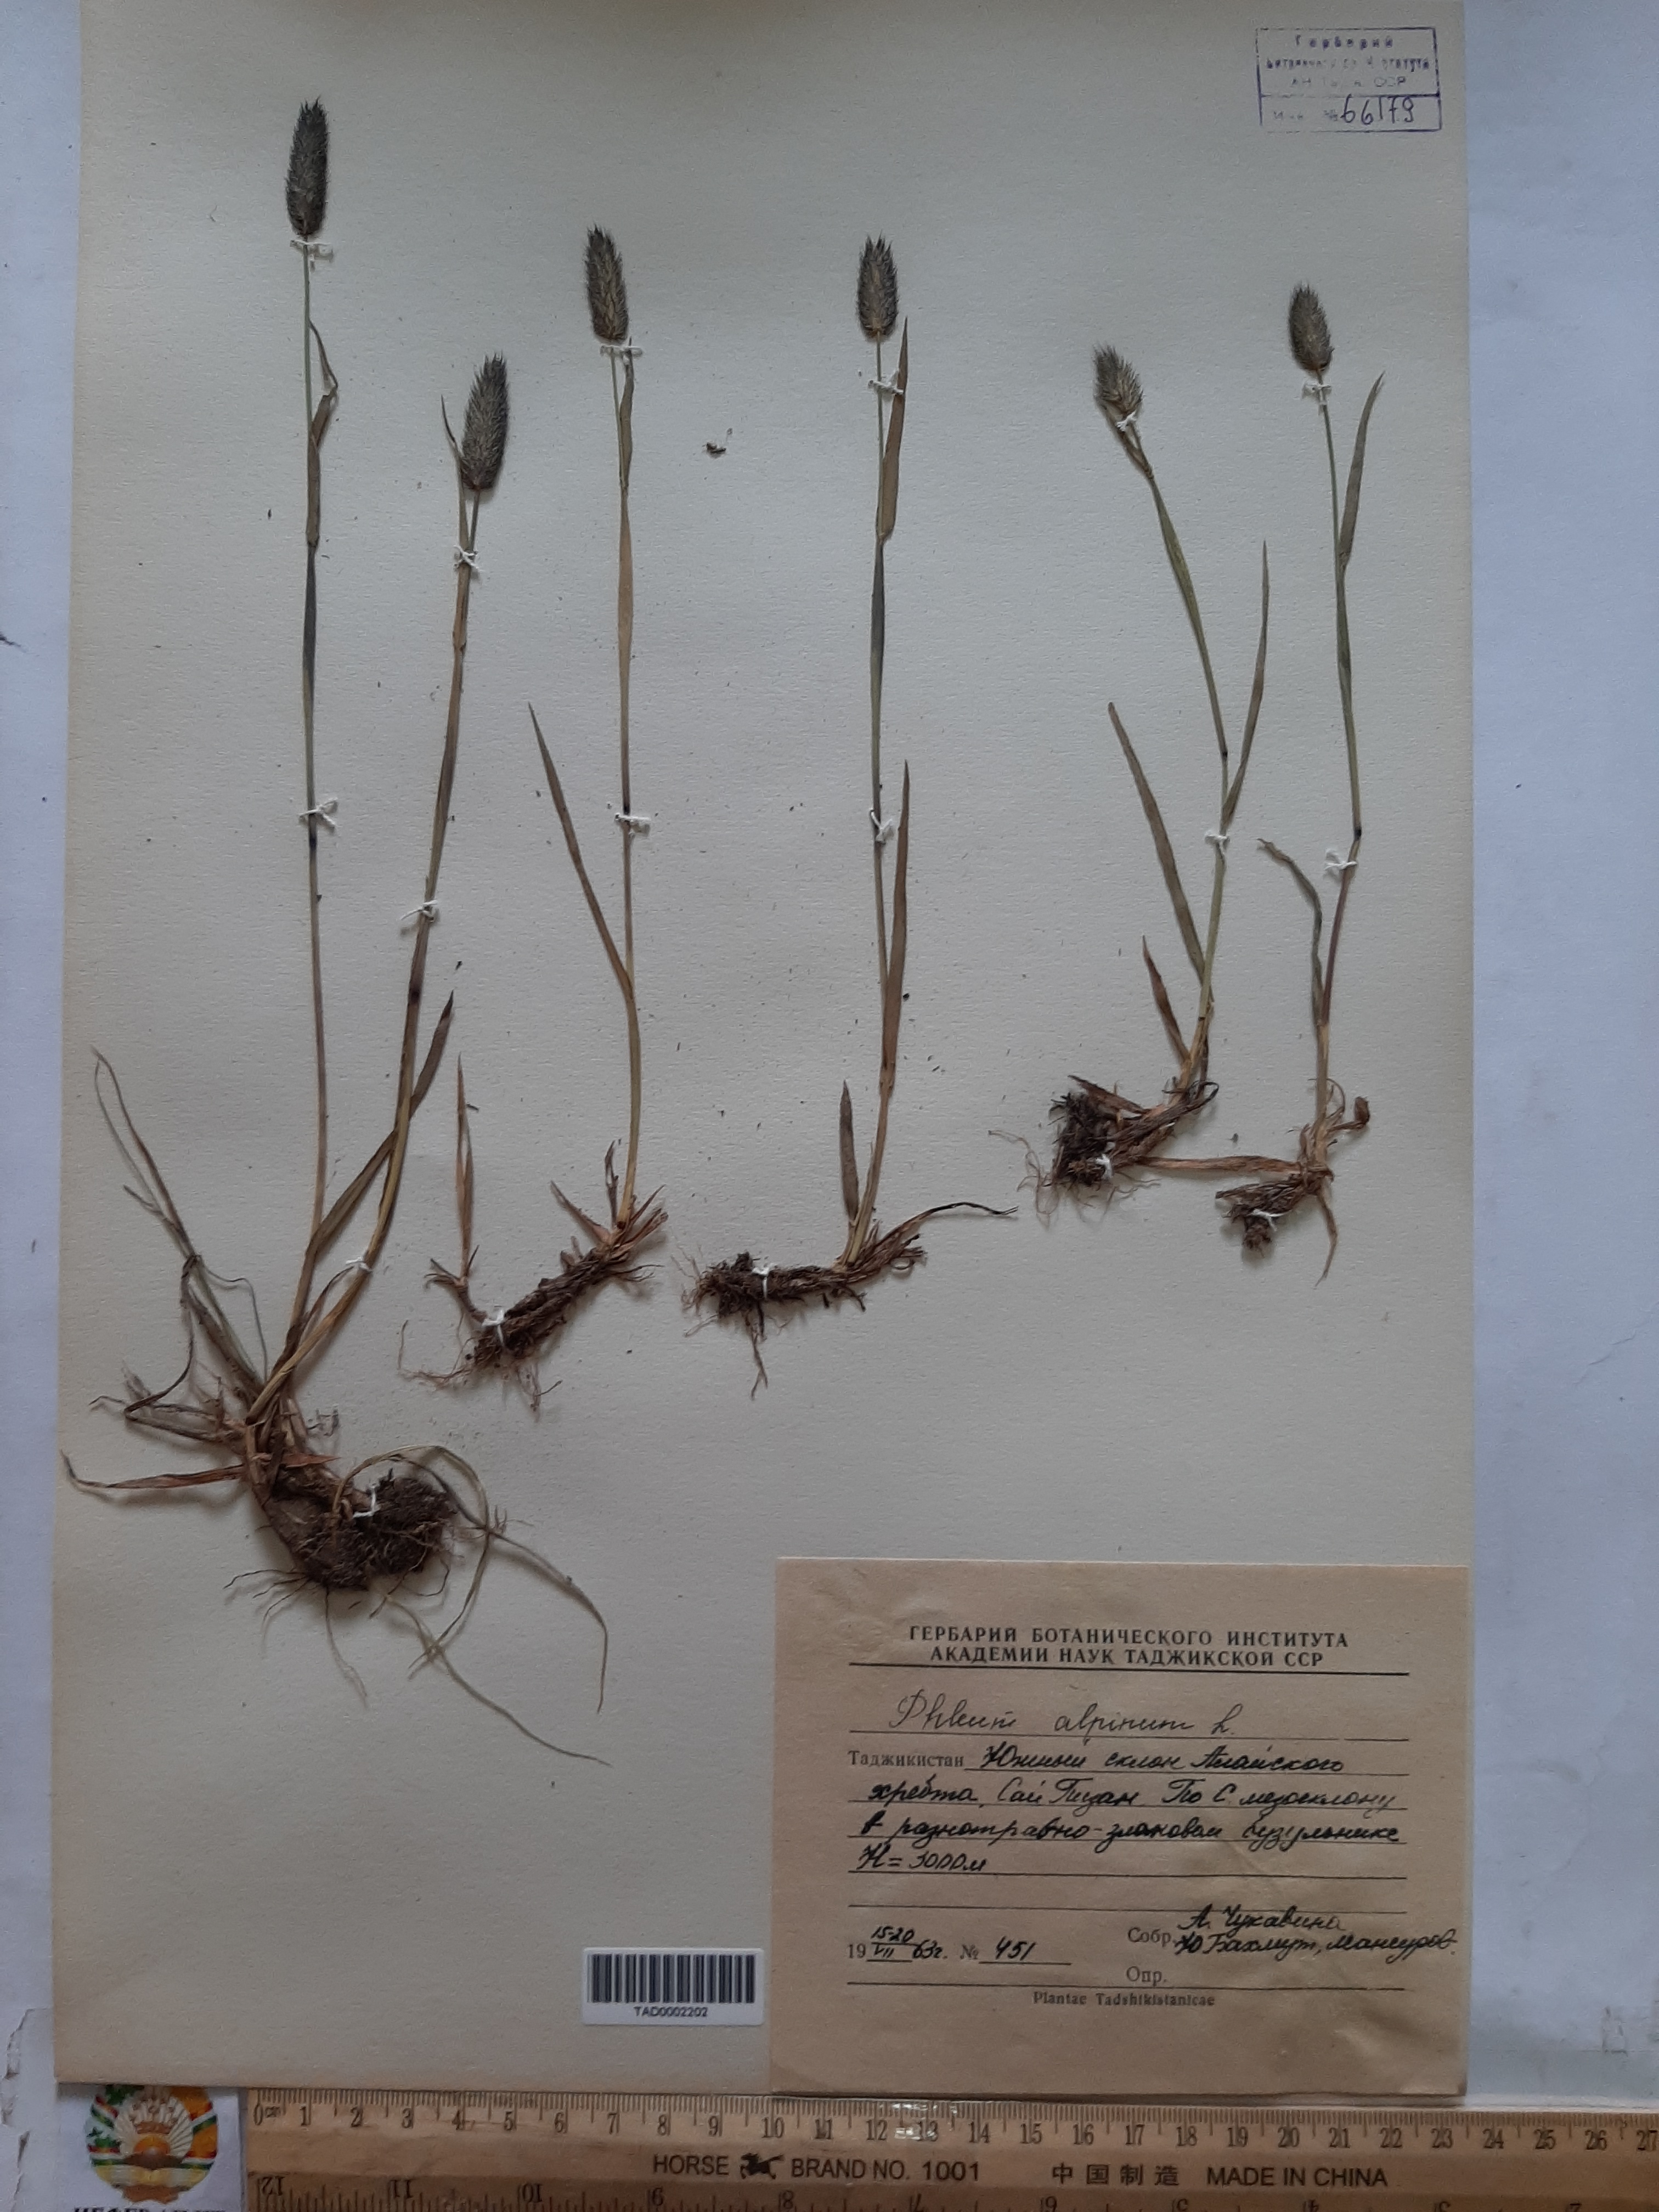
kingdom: Plantae
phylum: Tracheophyta
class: Liliopsida
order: Poales
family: Poaceae
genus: Phleum
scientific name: Phleum alpinum
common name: Alpine cat's-tail
